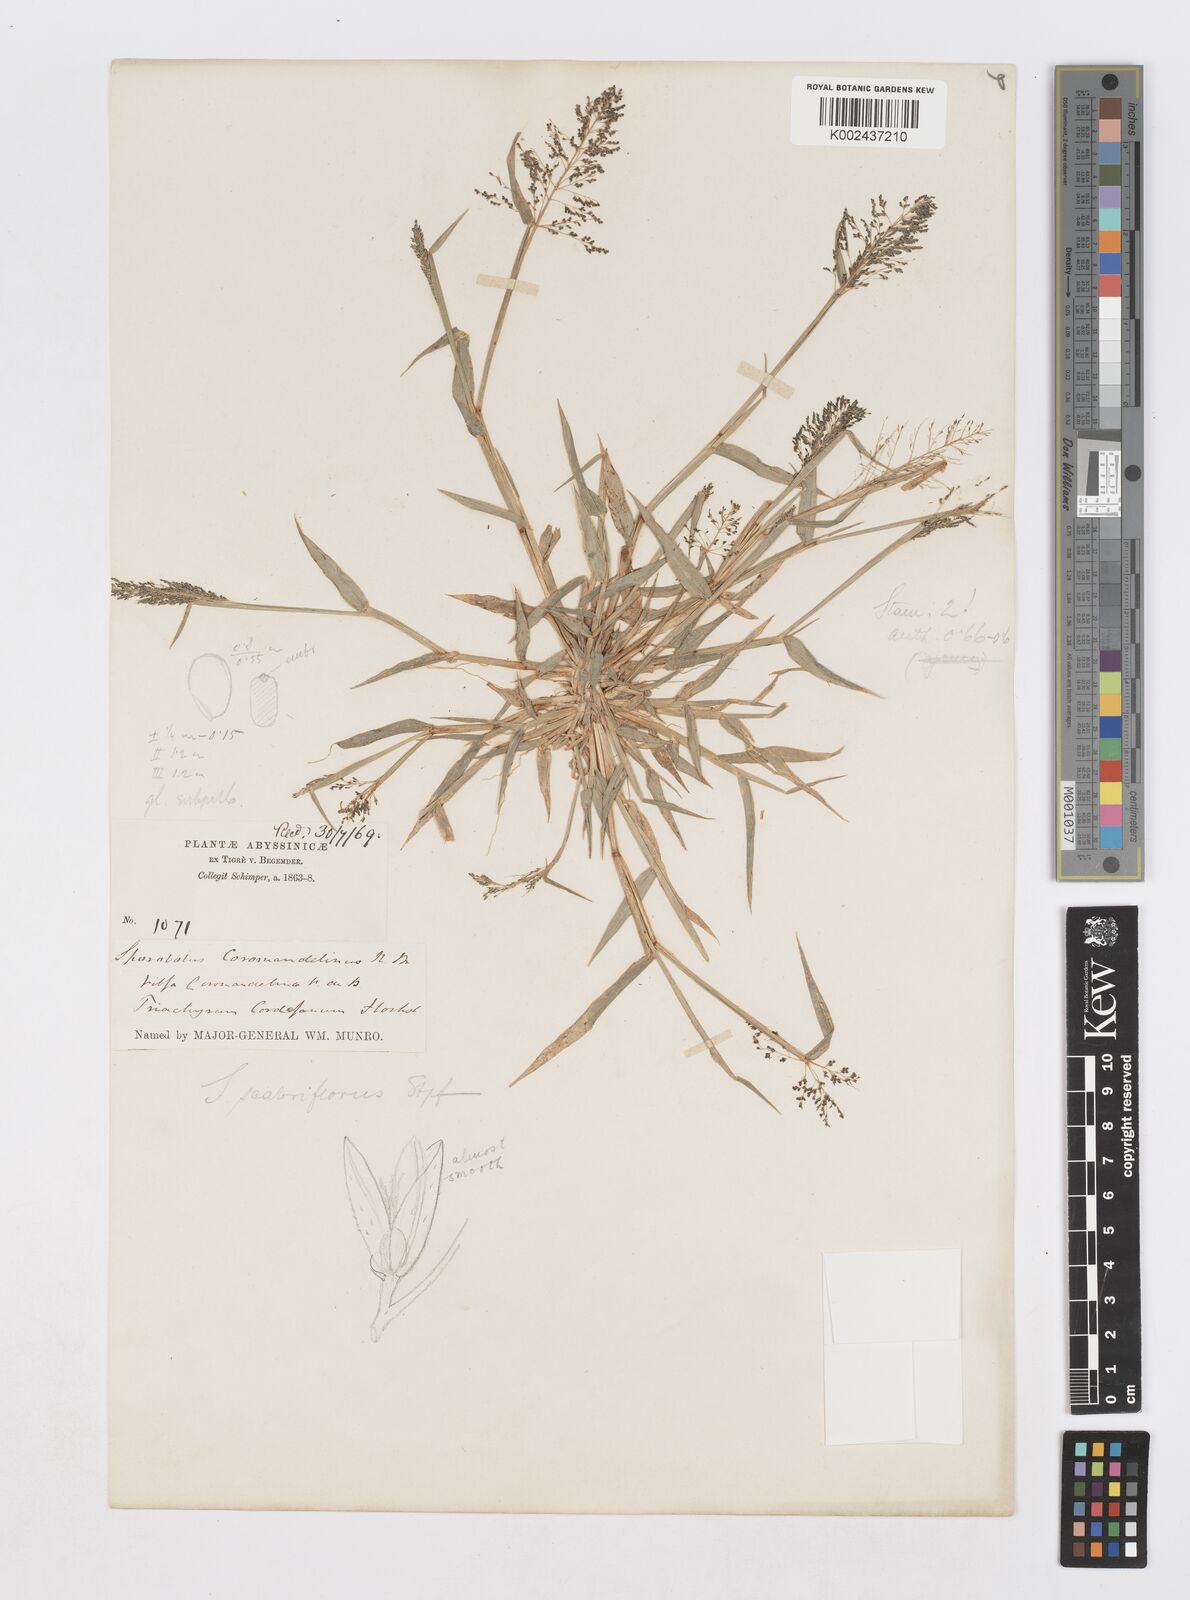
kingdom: Plantae
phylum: Tracheophyta
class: Liliopsida
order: Poales
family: Poaceae
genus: Sporobolus
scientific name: Sporobolus microprotus
